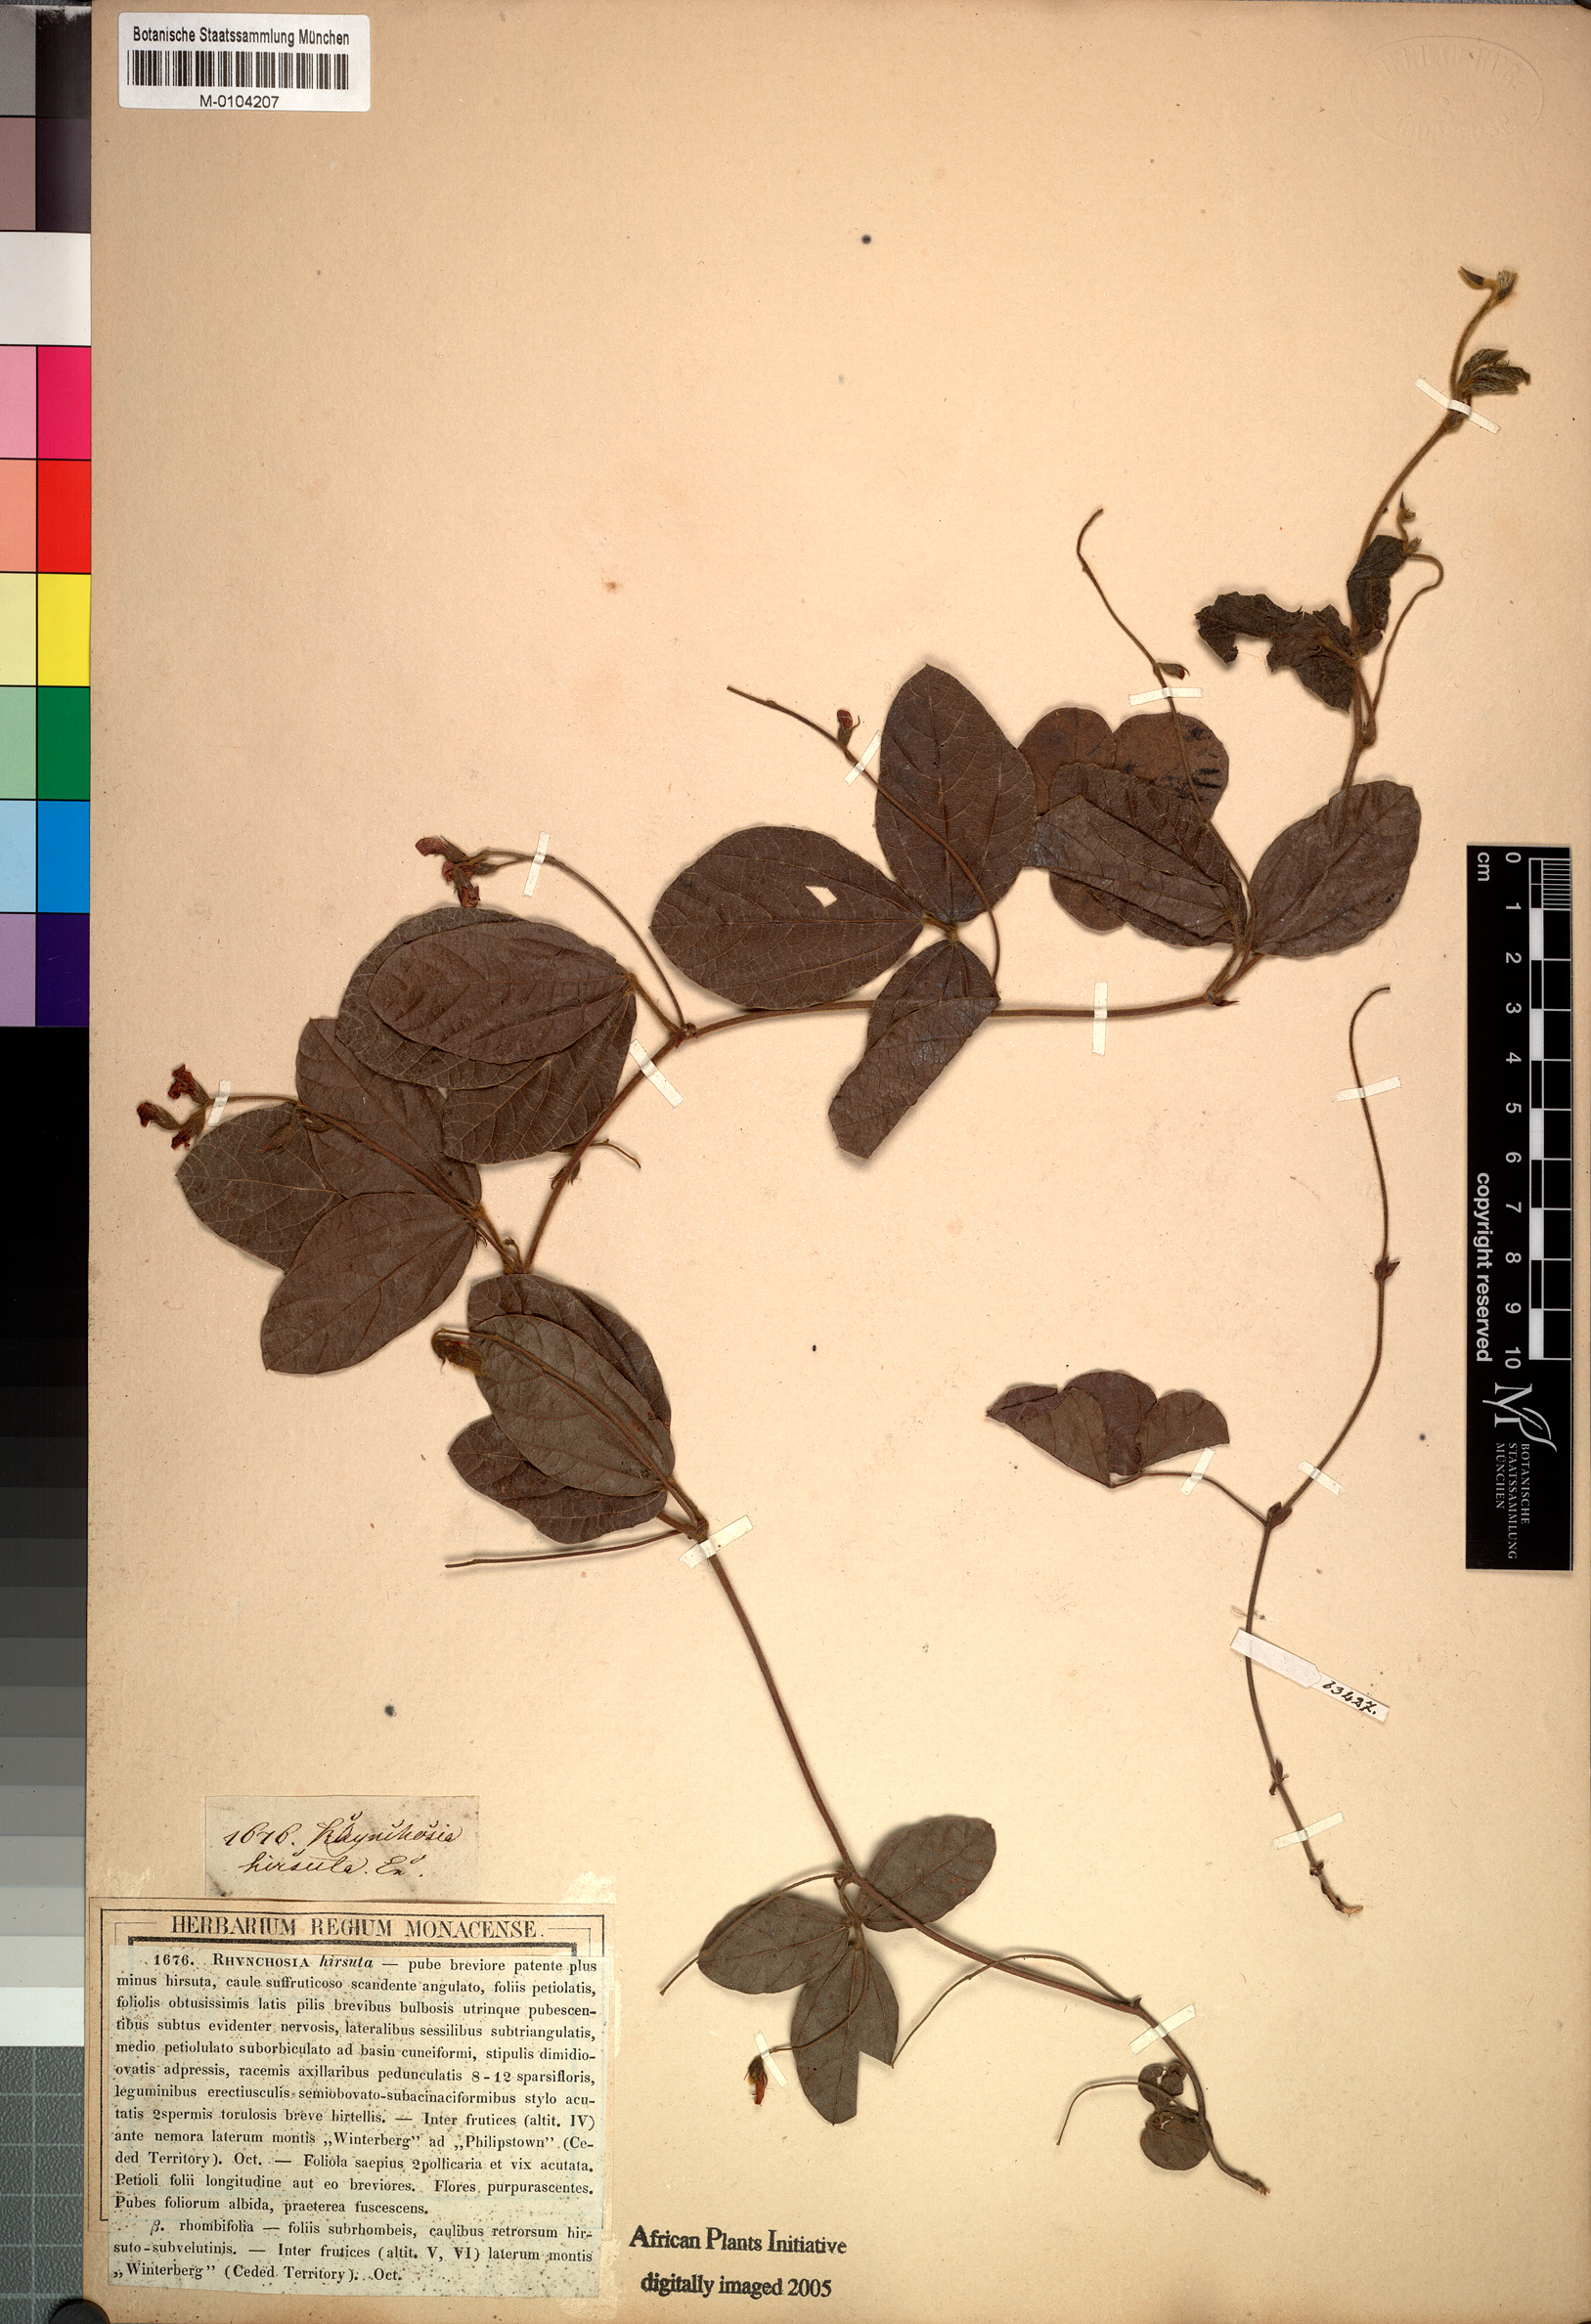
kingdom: Plantae
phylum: Tracheophyta
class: Magnoliopsida
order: Fabales
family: Fabaceae
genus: Rhynchosia
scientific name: Rhynchosia hirsuta
